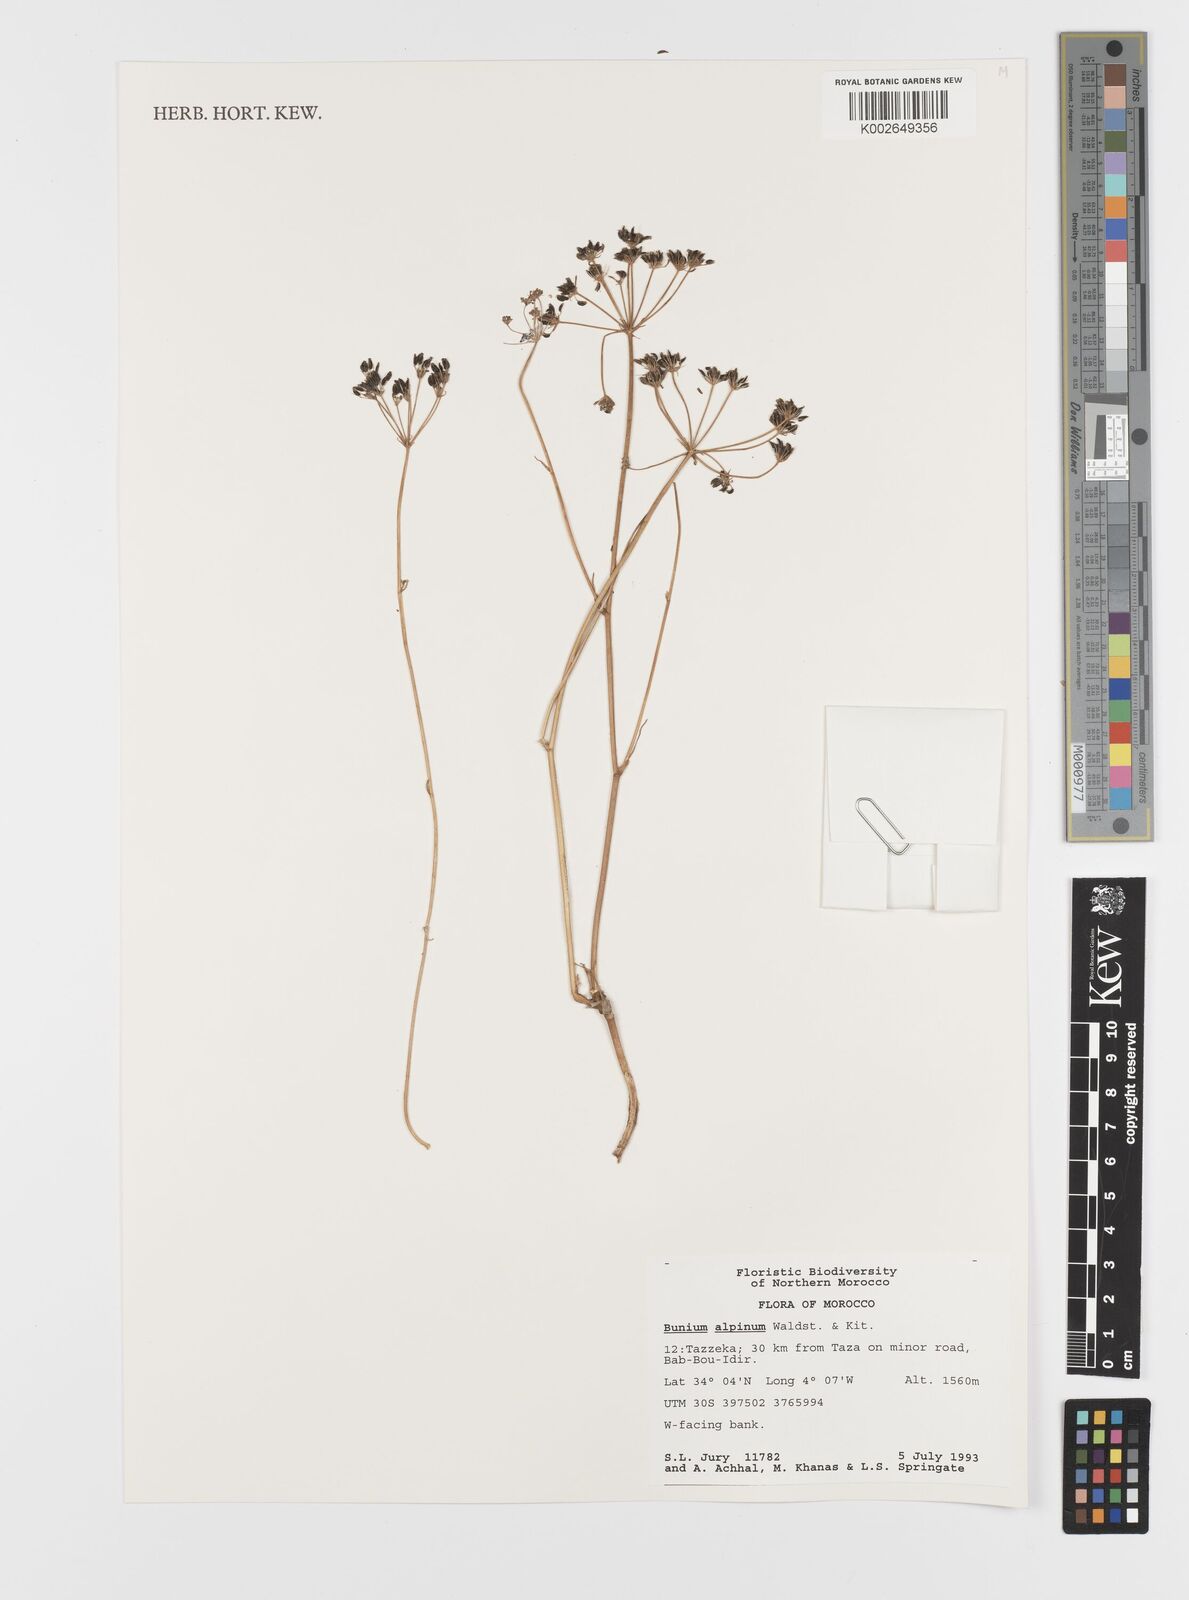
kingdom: Plantae
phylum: Tracheophyta
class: Magnoliopsida
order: Apiales
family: Apiaceae
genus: Bunium
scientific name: Bunium
